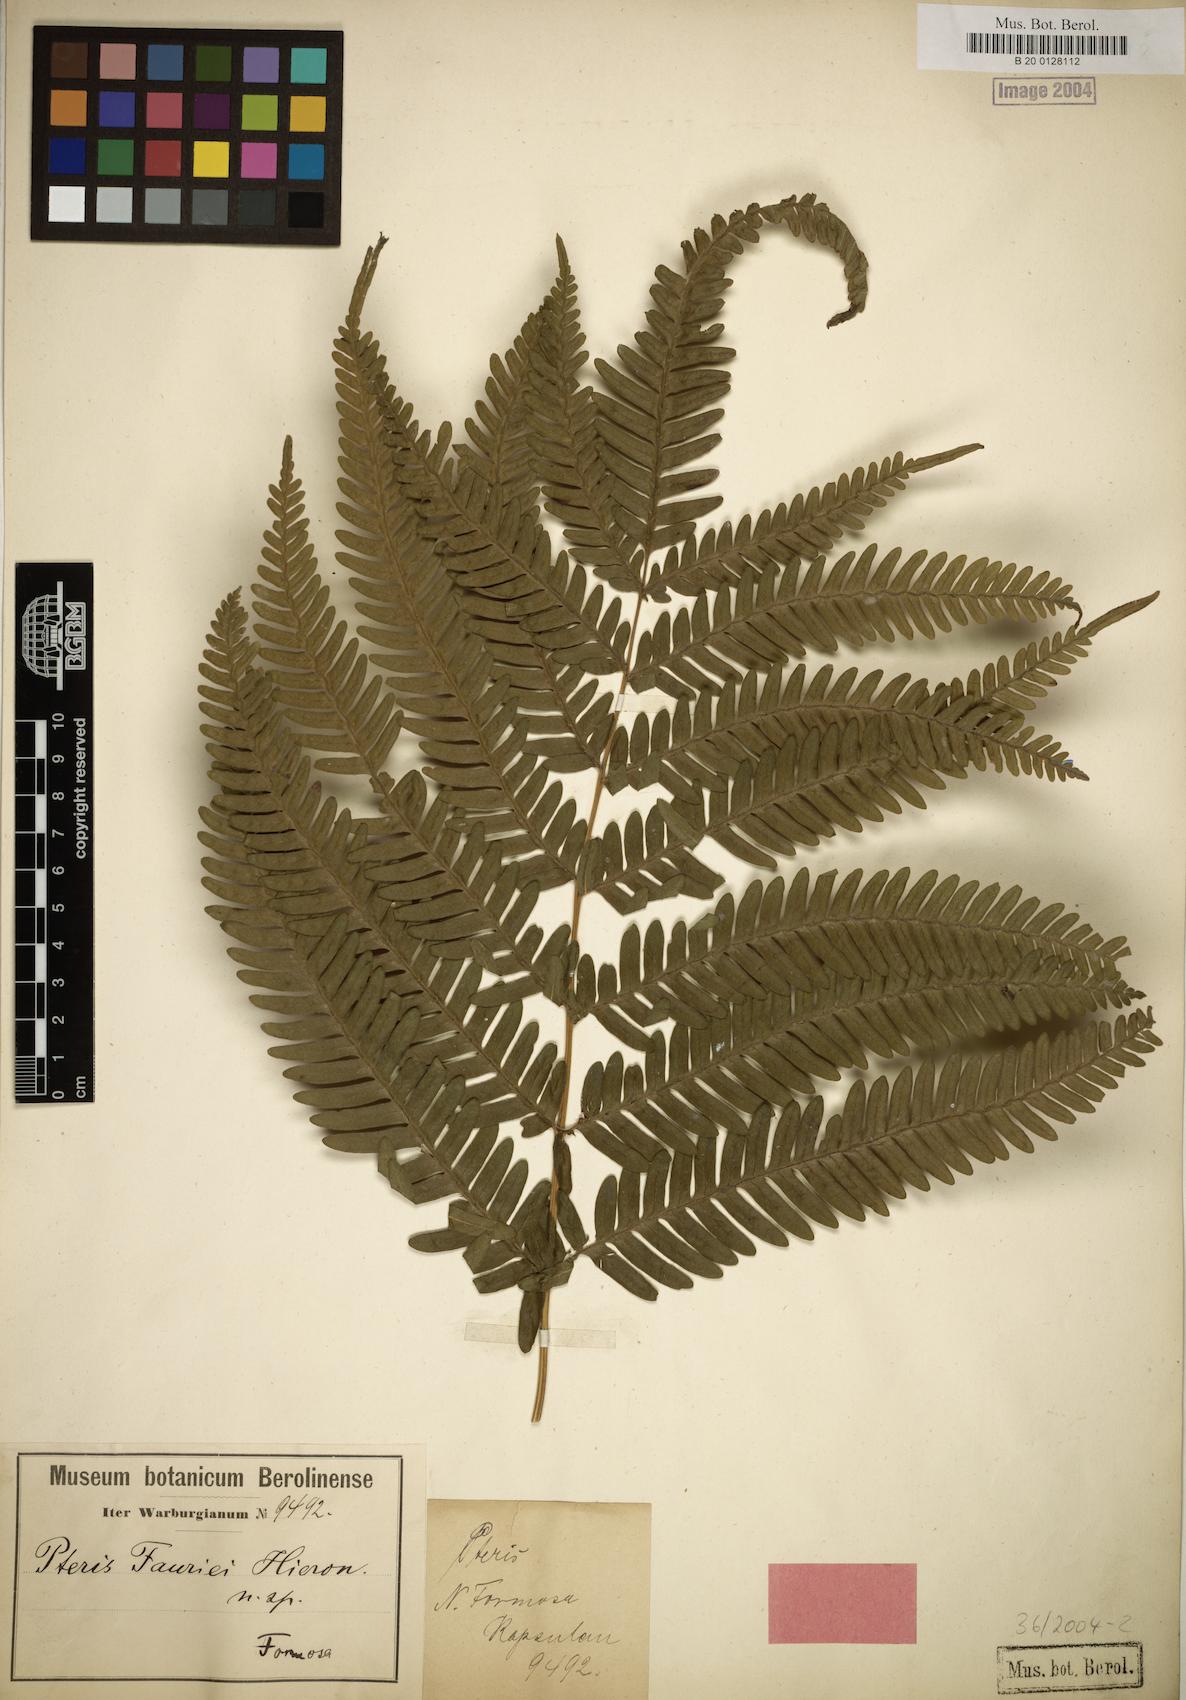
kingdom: Plantae
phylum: Tracheophyta
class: Polypodiopsida
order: Polypodiales
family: Pteridaceae
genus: Pteris
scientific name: Pteris fauriei
